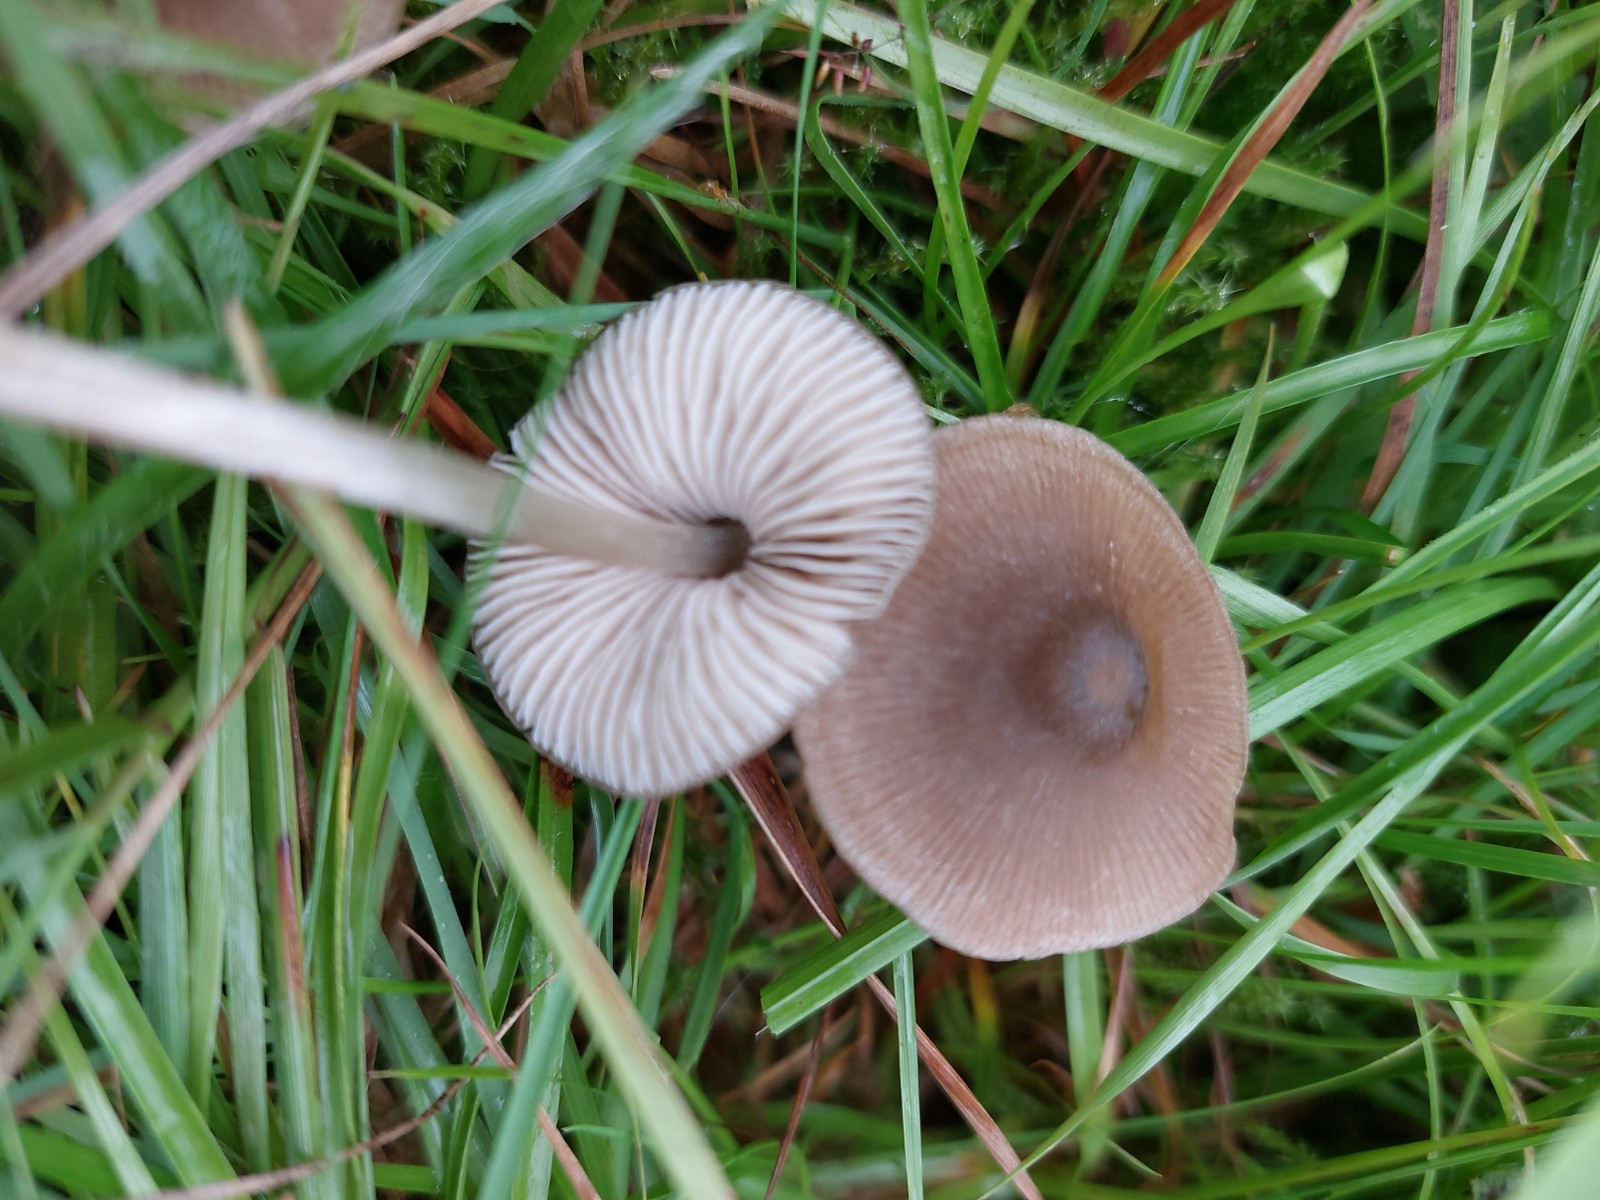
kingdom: Fungi
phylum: Basidiomycota
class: Agaricomycetes
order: Agaricales
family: Entolomataceae
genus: Entoloma
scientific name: Entoloma
